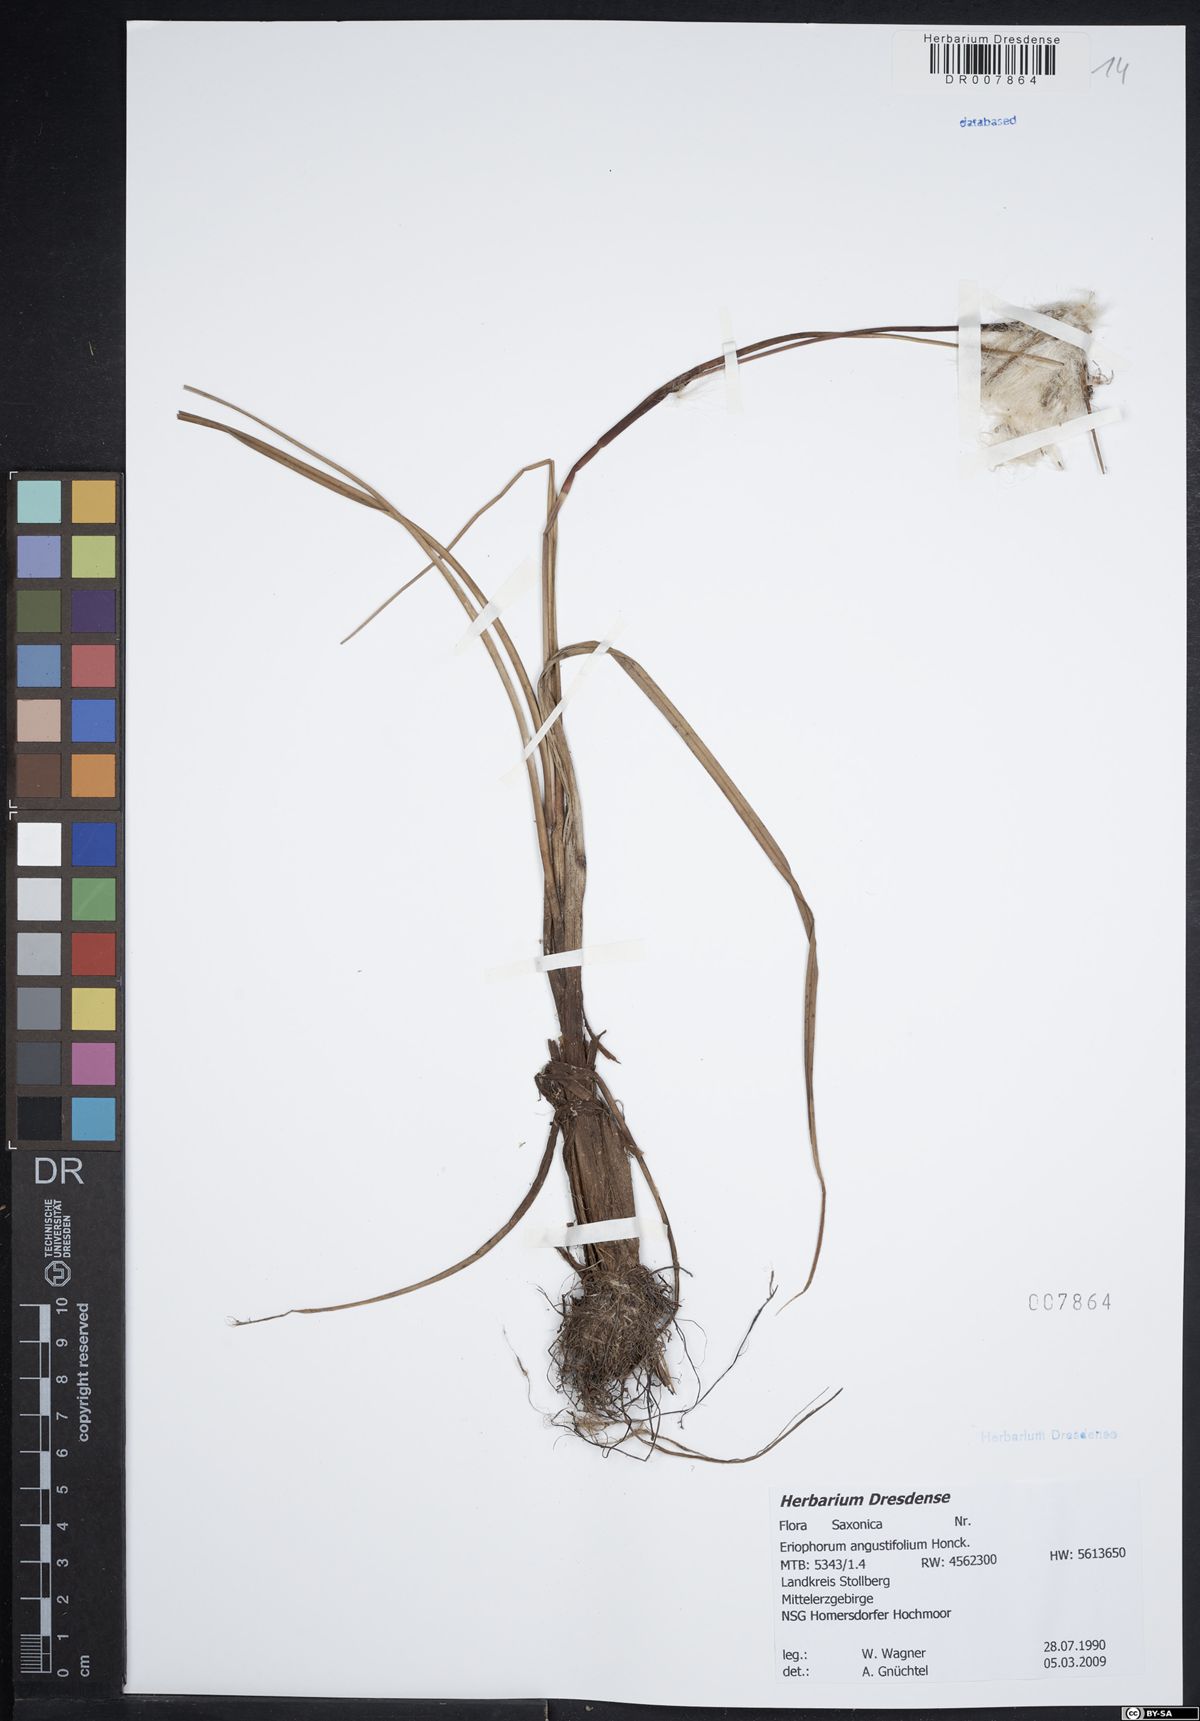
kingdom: Plantae
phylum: Tracheophyta
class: Liliopsida
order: Poales
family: Cyperaceae
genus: Eriophorum
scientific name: Eriophorum angustifolium
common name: Common cottongrass
